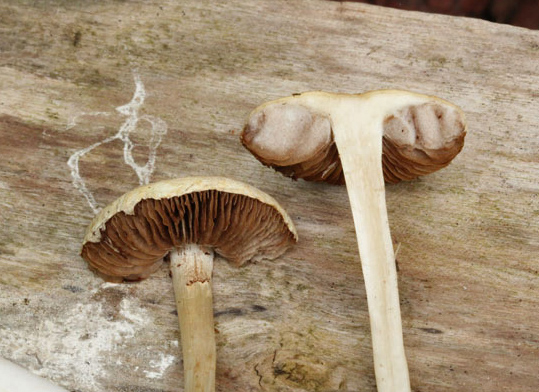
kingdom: Fungi
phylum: Basidiomycota
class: Agaricomycetes
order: Agaricales
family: Strophariaceae
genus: Agrocybe
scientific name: Agrocybe dura
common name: fastkødet agerhat
